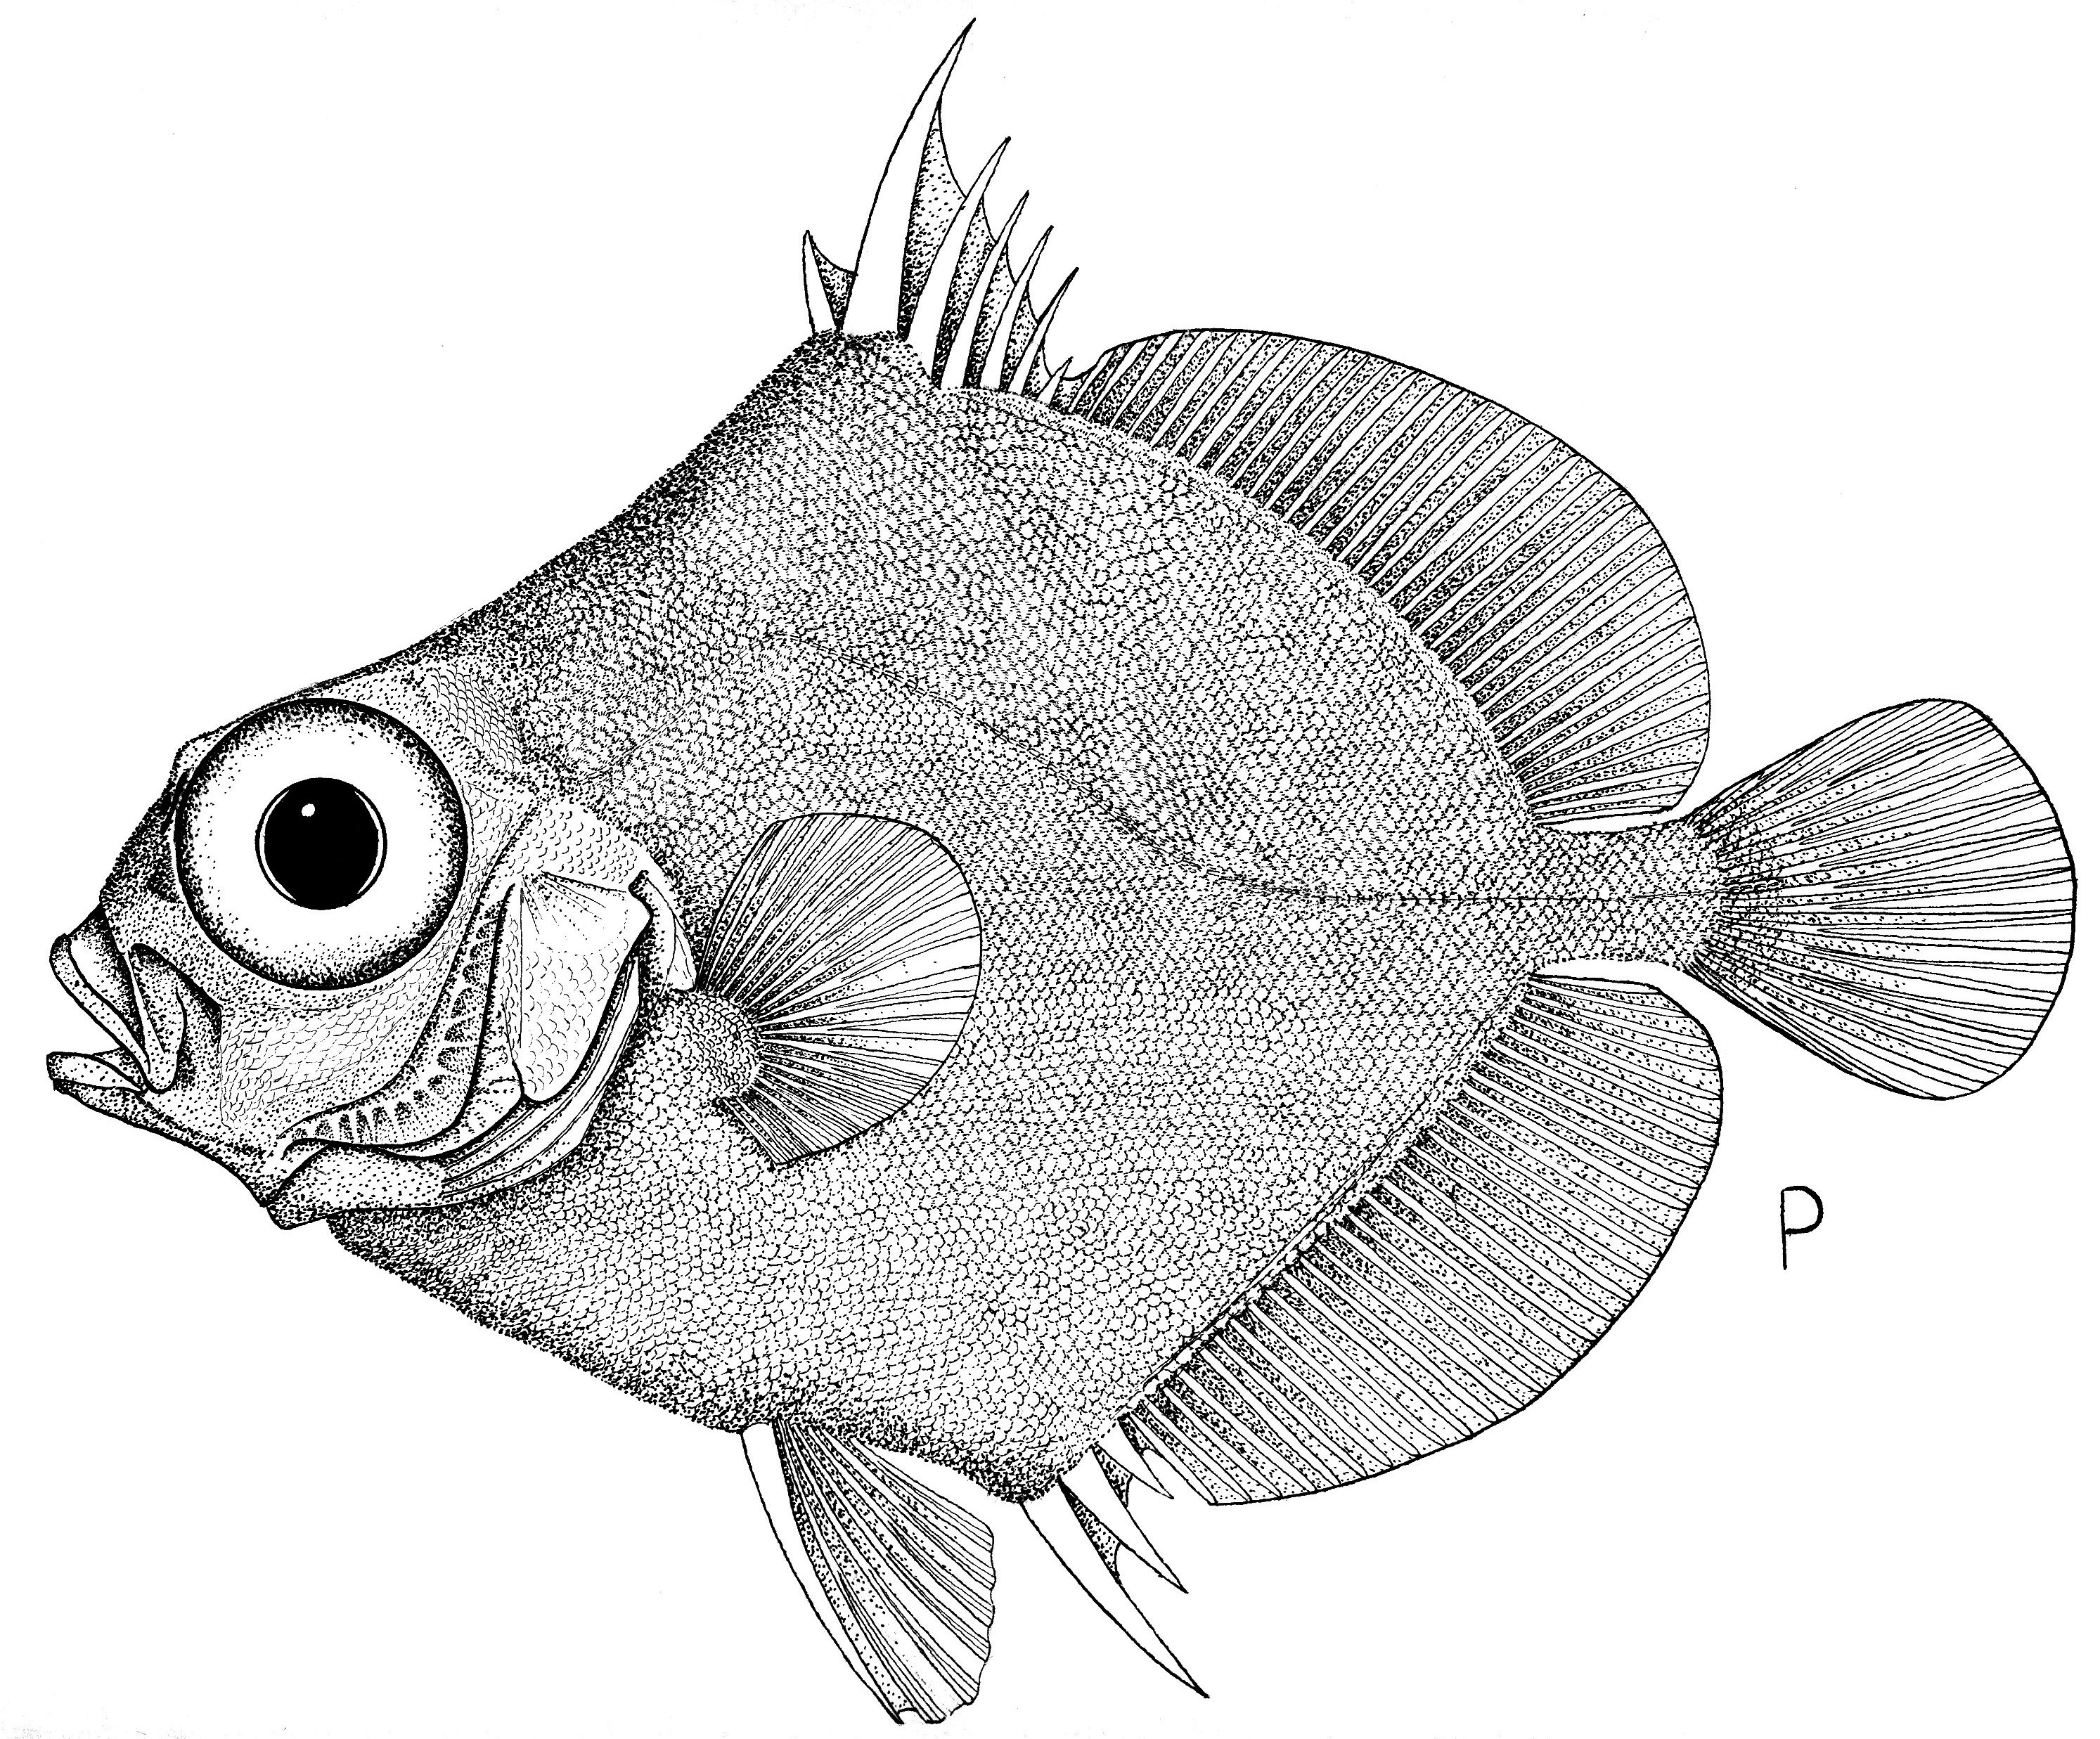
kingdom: Animalia
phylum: Chordata
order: Zeiformes
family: Oreosomatidae
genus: Neocyttus
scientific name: Neocyttus rhomboidalis
